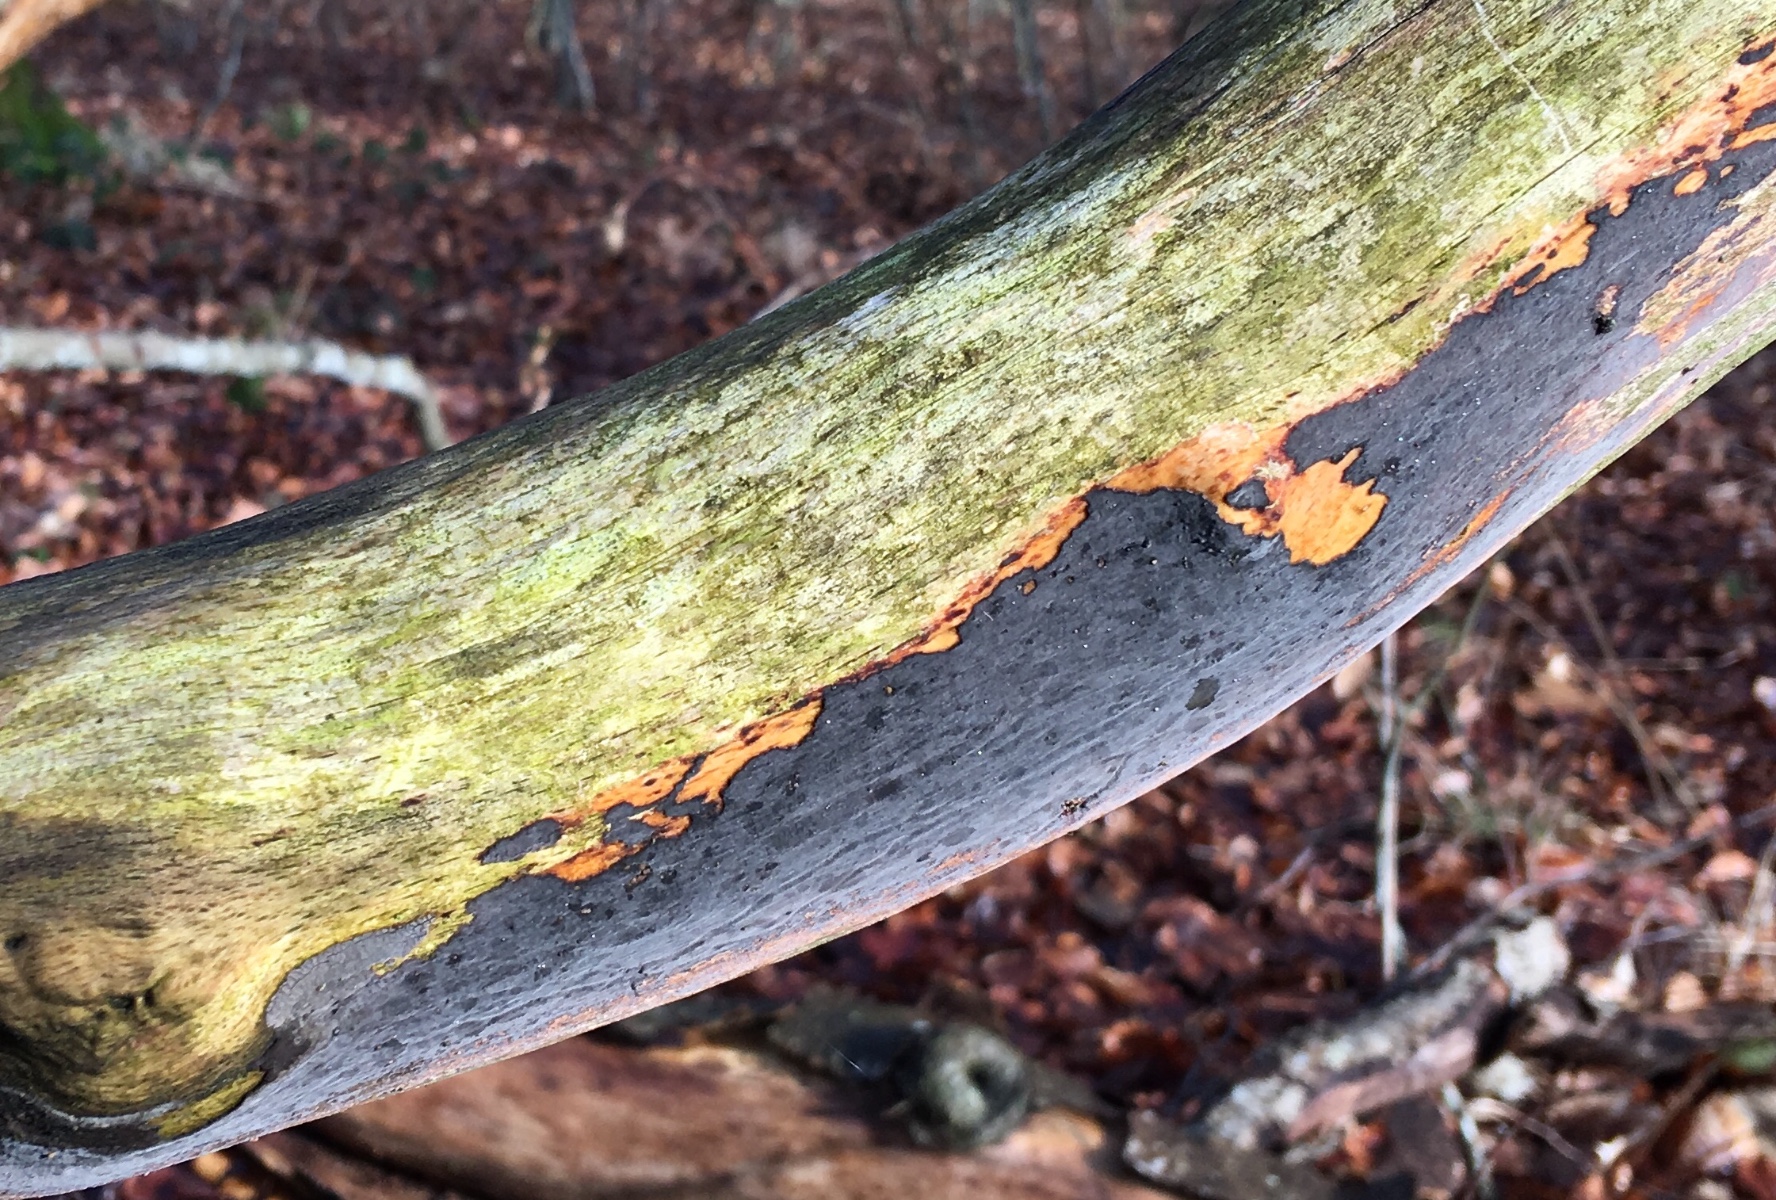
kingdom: Fungi
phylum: Basidiomycota
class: Agaricomycetes
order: Russulales
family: Peniophoraceae
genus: Peniophora
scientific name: Peniophora
